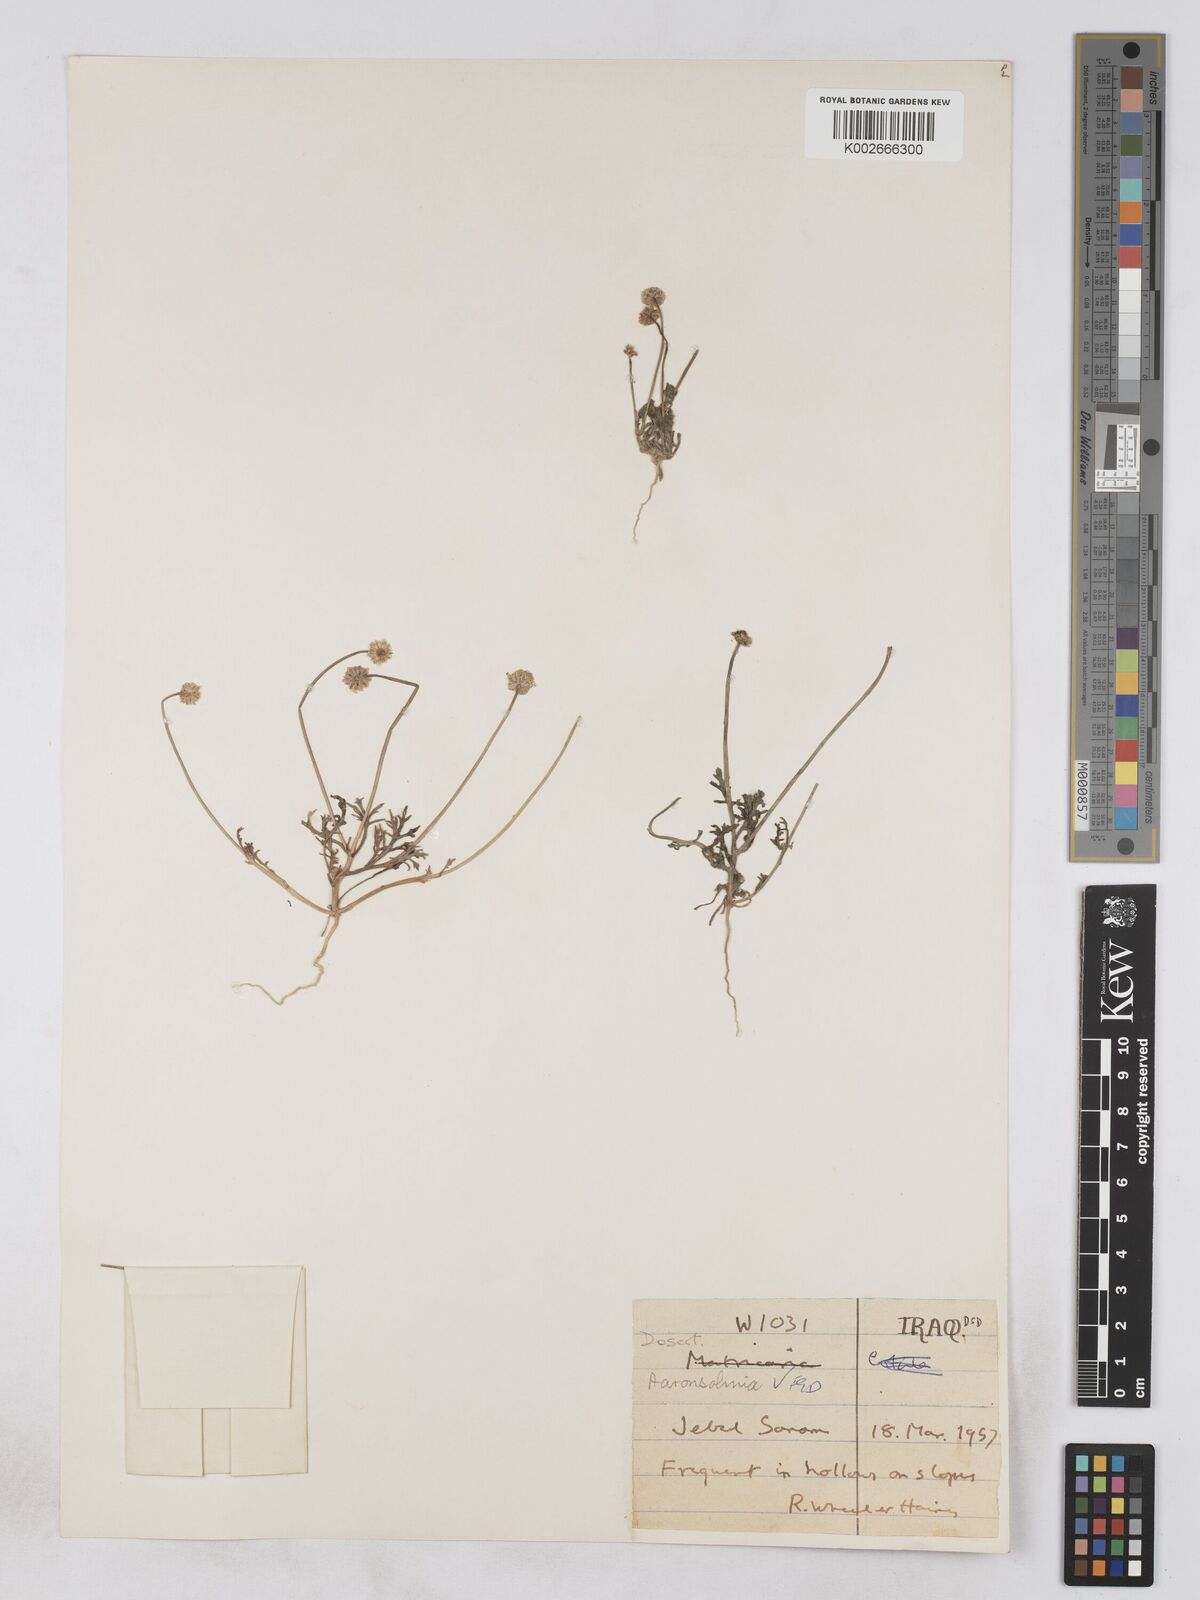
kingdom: Plantae
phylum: Tracheophyta
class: Magnoliopsida
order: Asterales
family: Asteraceae
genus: Otoglyphis
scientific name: Otoglyphis factorovskyi
